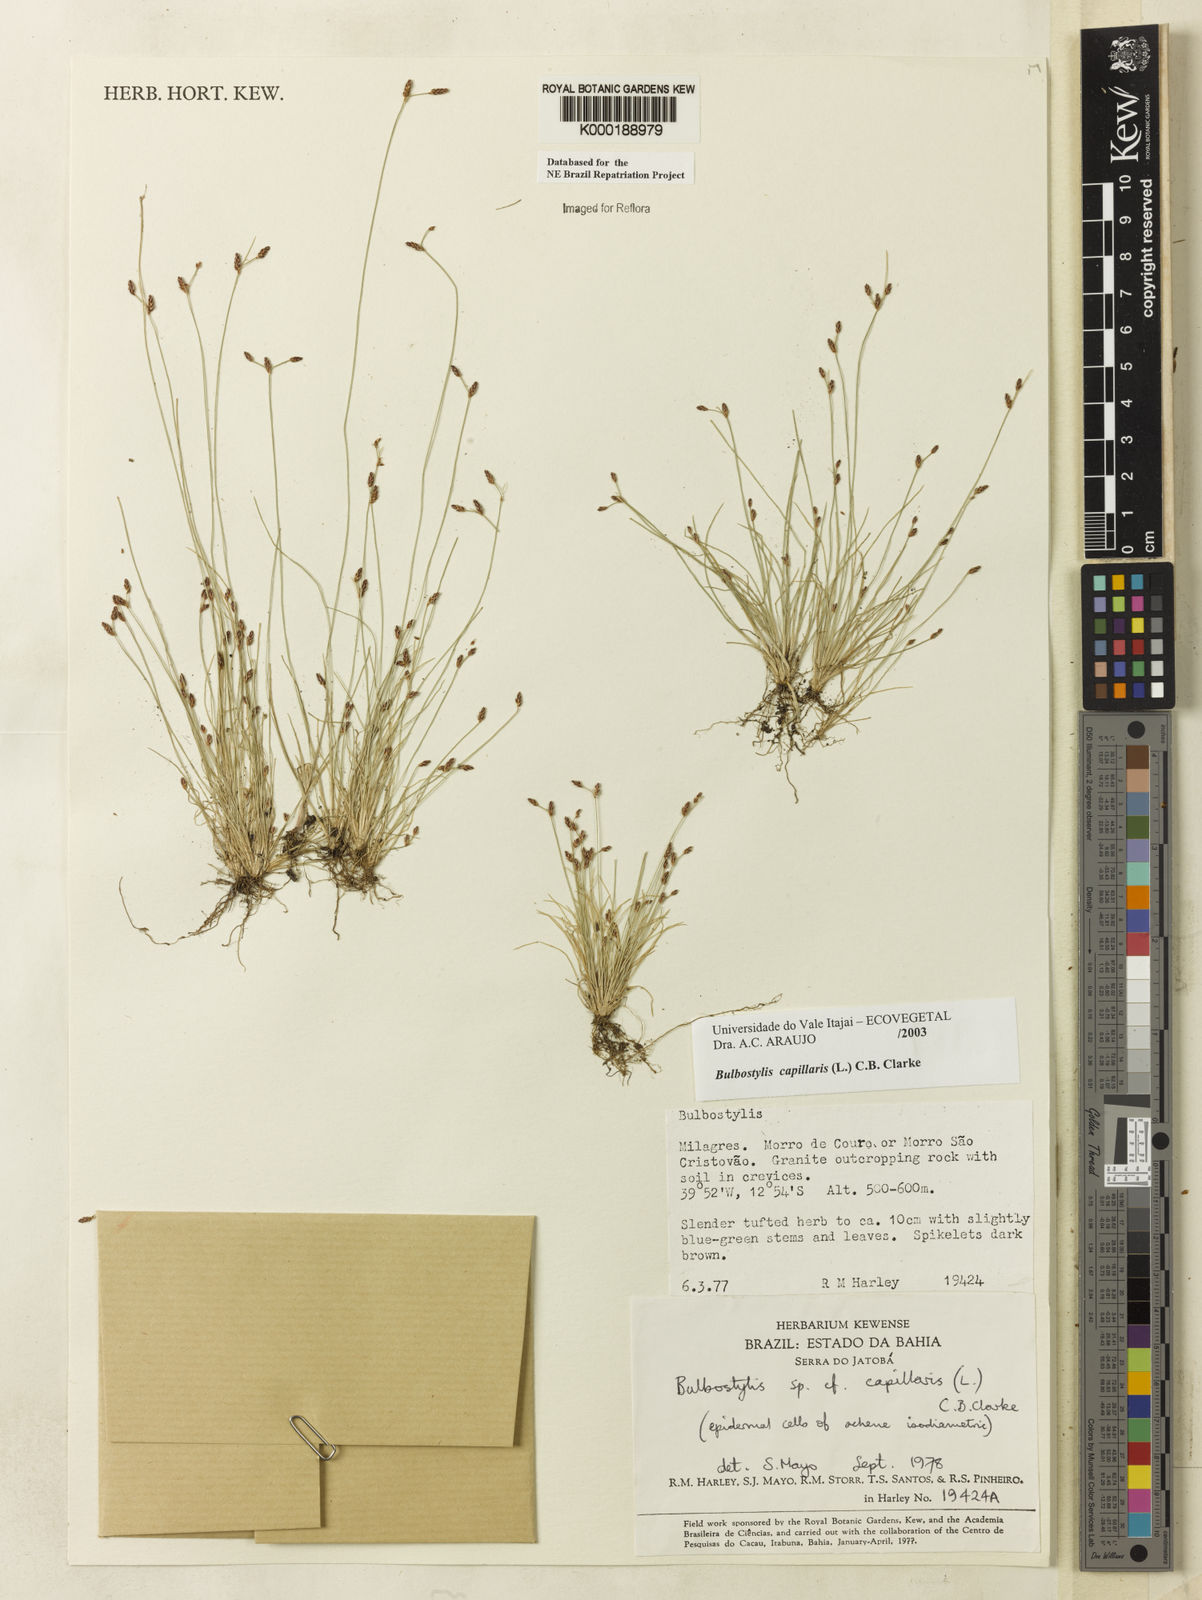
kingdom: Plantae
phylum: Tracheophyta
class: Liliopsida
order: Poales
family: Cyperaceae
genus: Bulbostylis
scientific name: Bulbostylis capillaris
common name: Densetuft hairsedge
